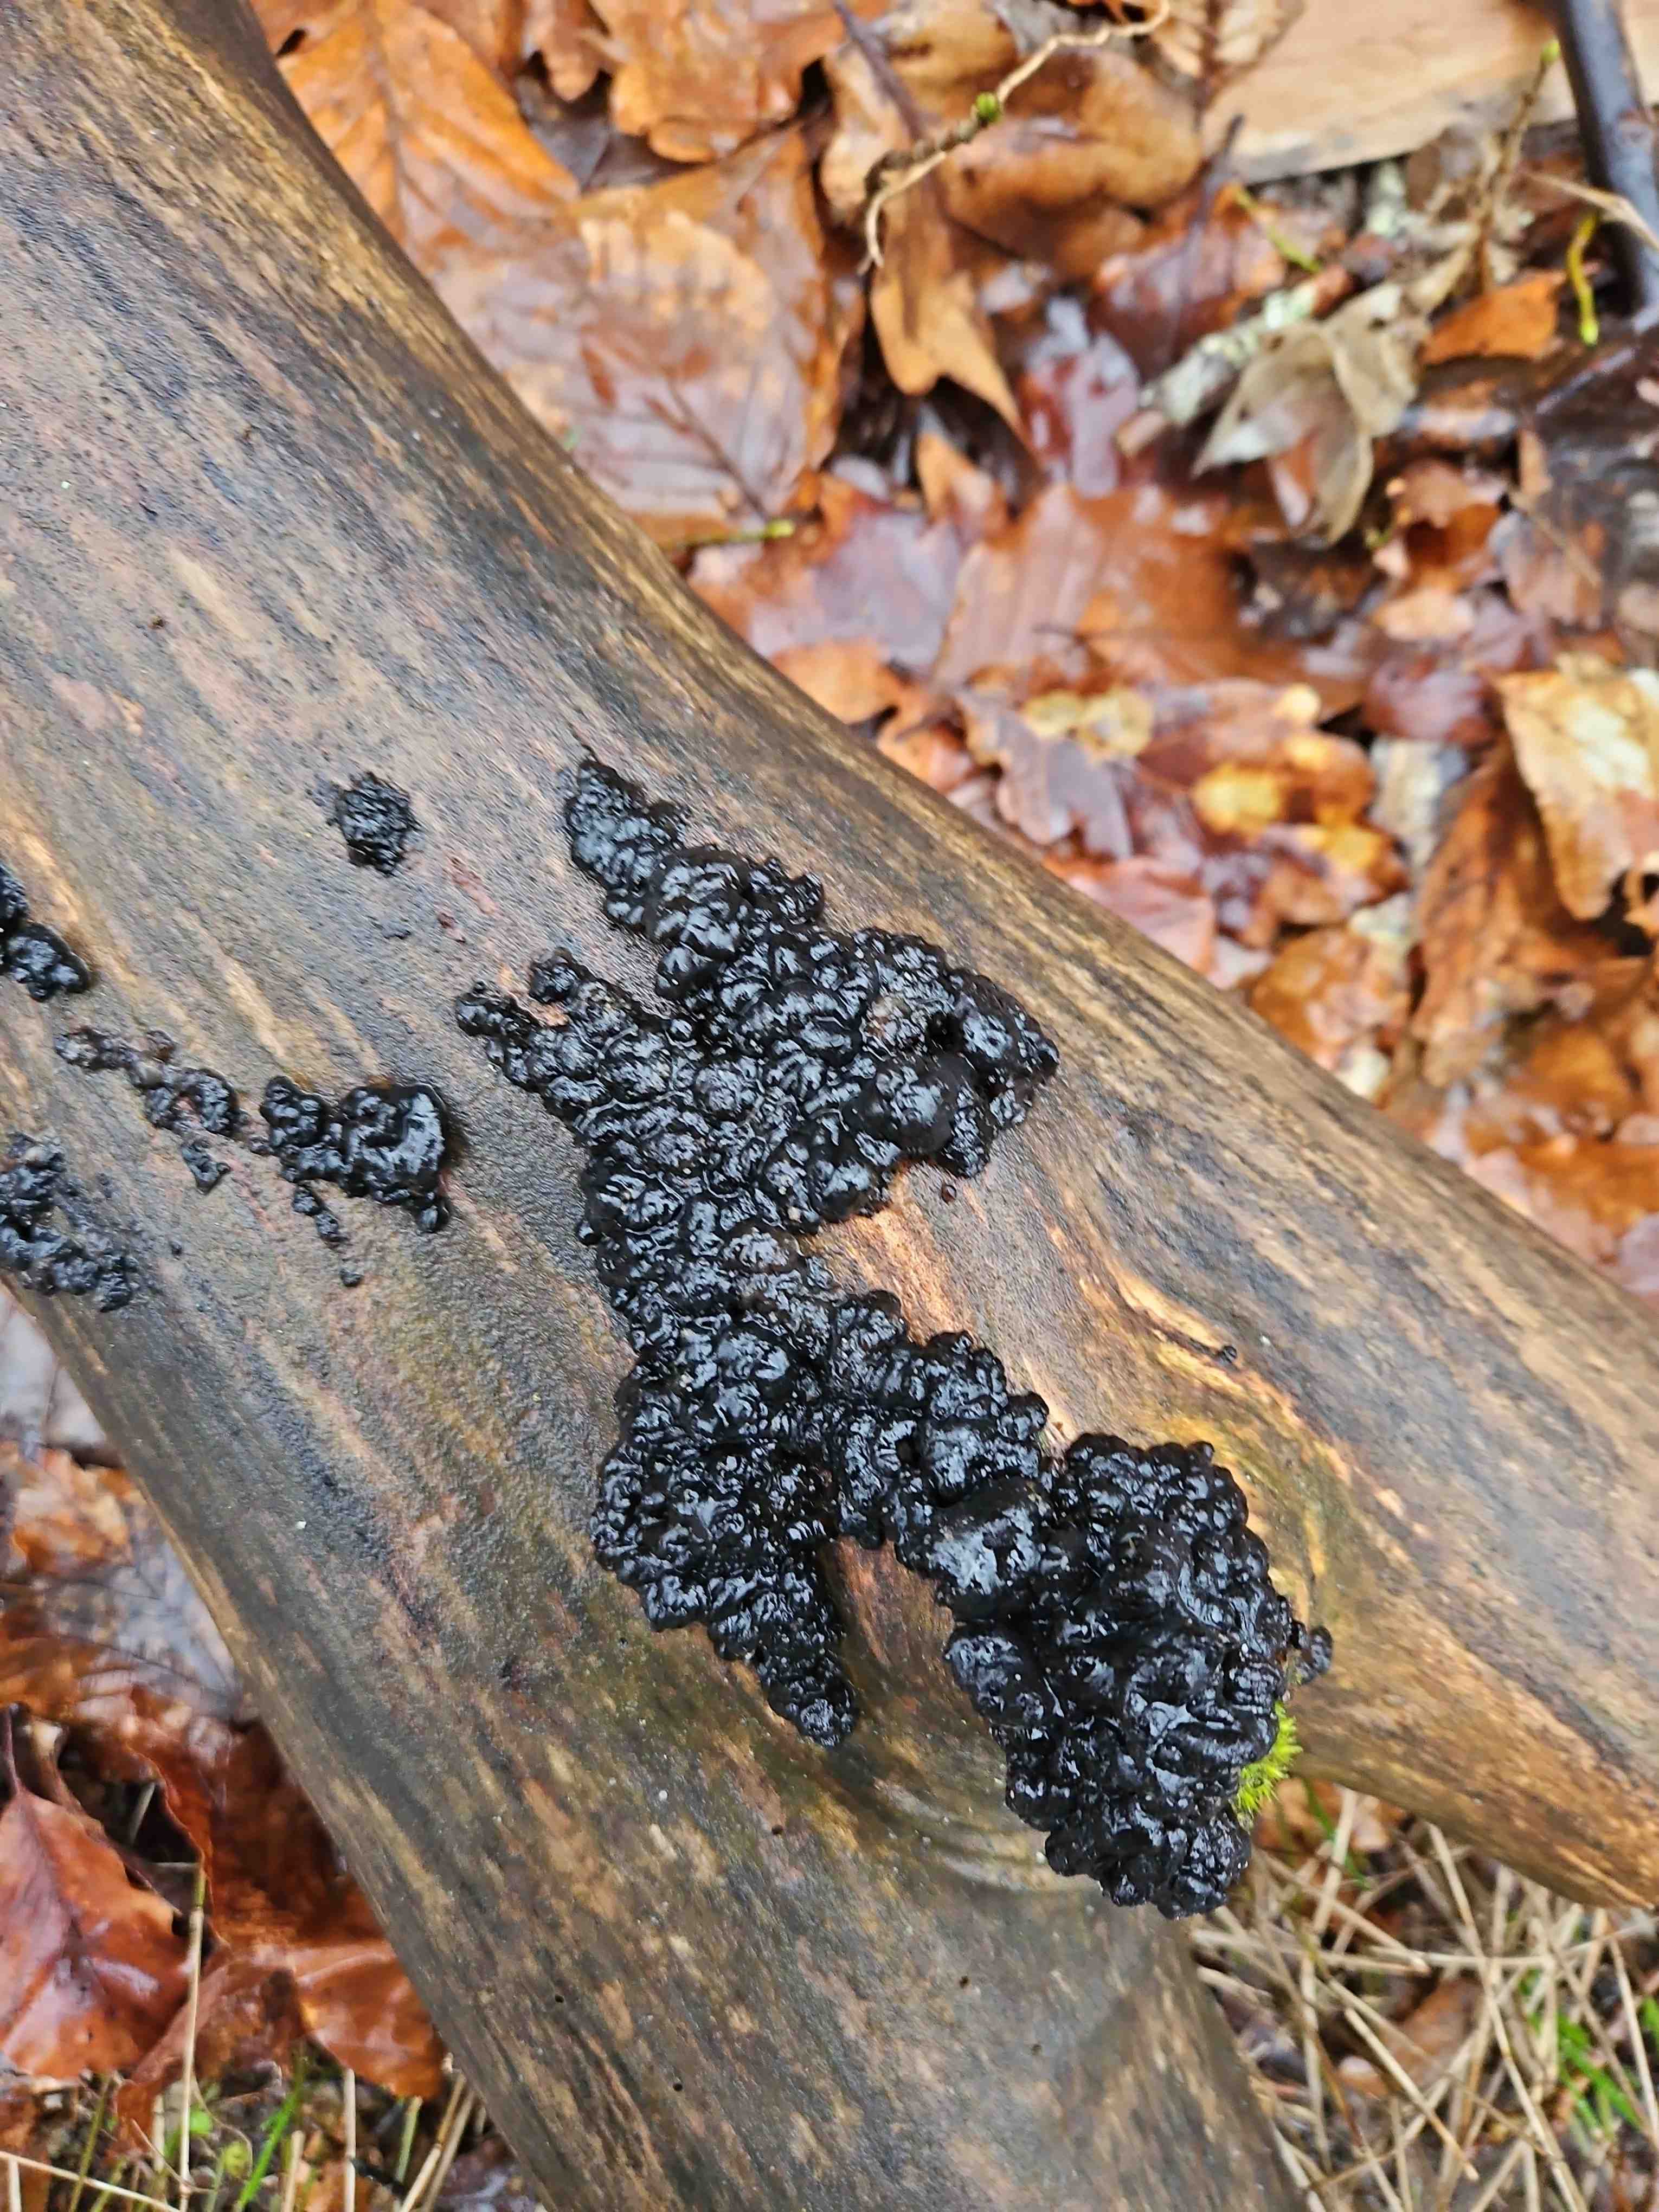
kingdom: Fungi
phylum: Basidiomycota
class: Agaricomycetes
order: Auriculariales
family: Auriculariaceae
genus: Exidia
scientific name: Exidia nigricans
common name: almindelig bævretop
